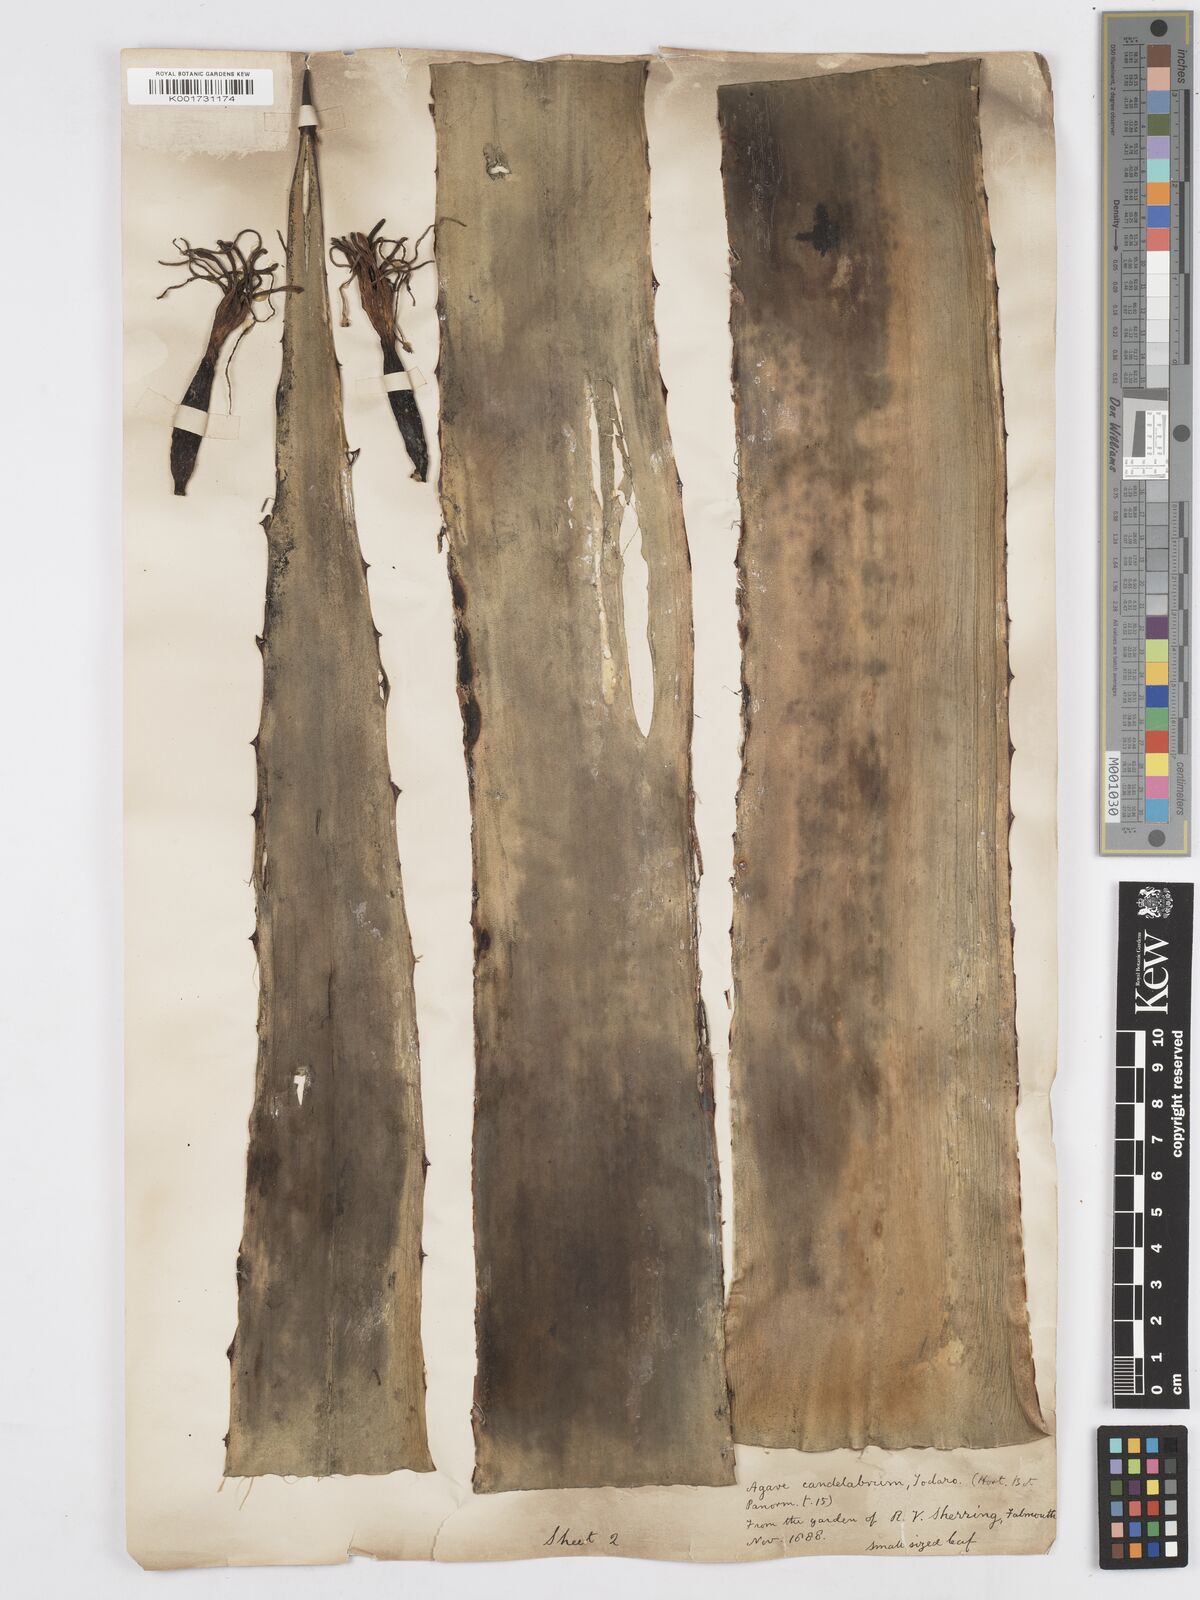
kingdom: Plantae
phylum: Tracheophyta
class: Liliopsida
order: Asparagales
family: Asparagaceae
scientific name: Asparagaceae
